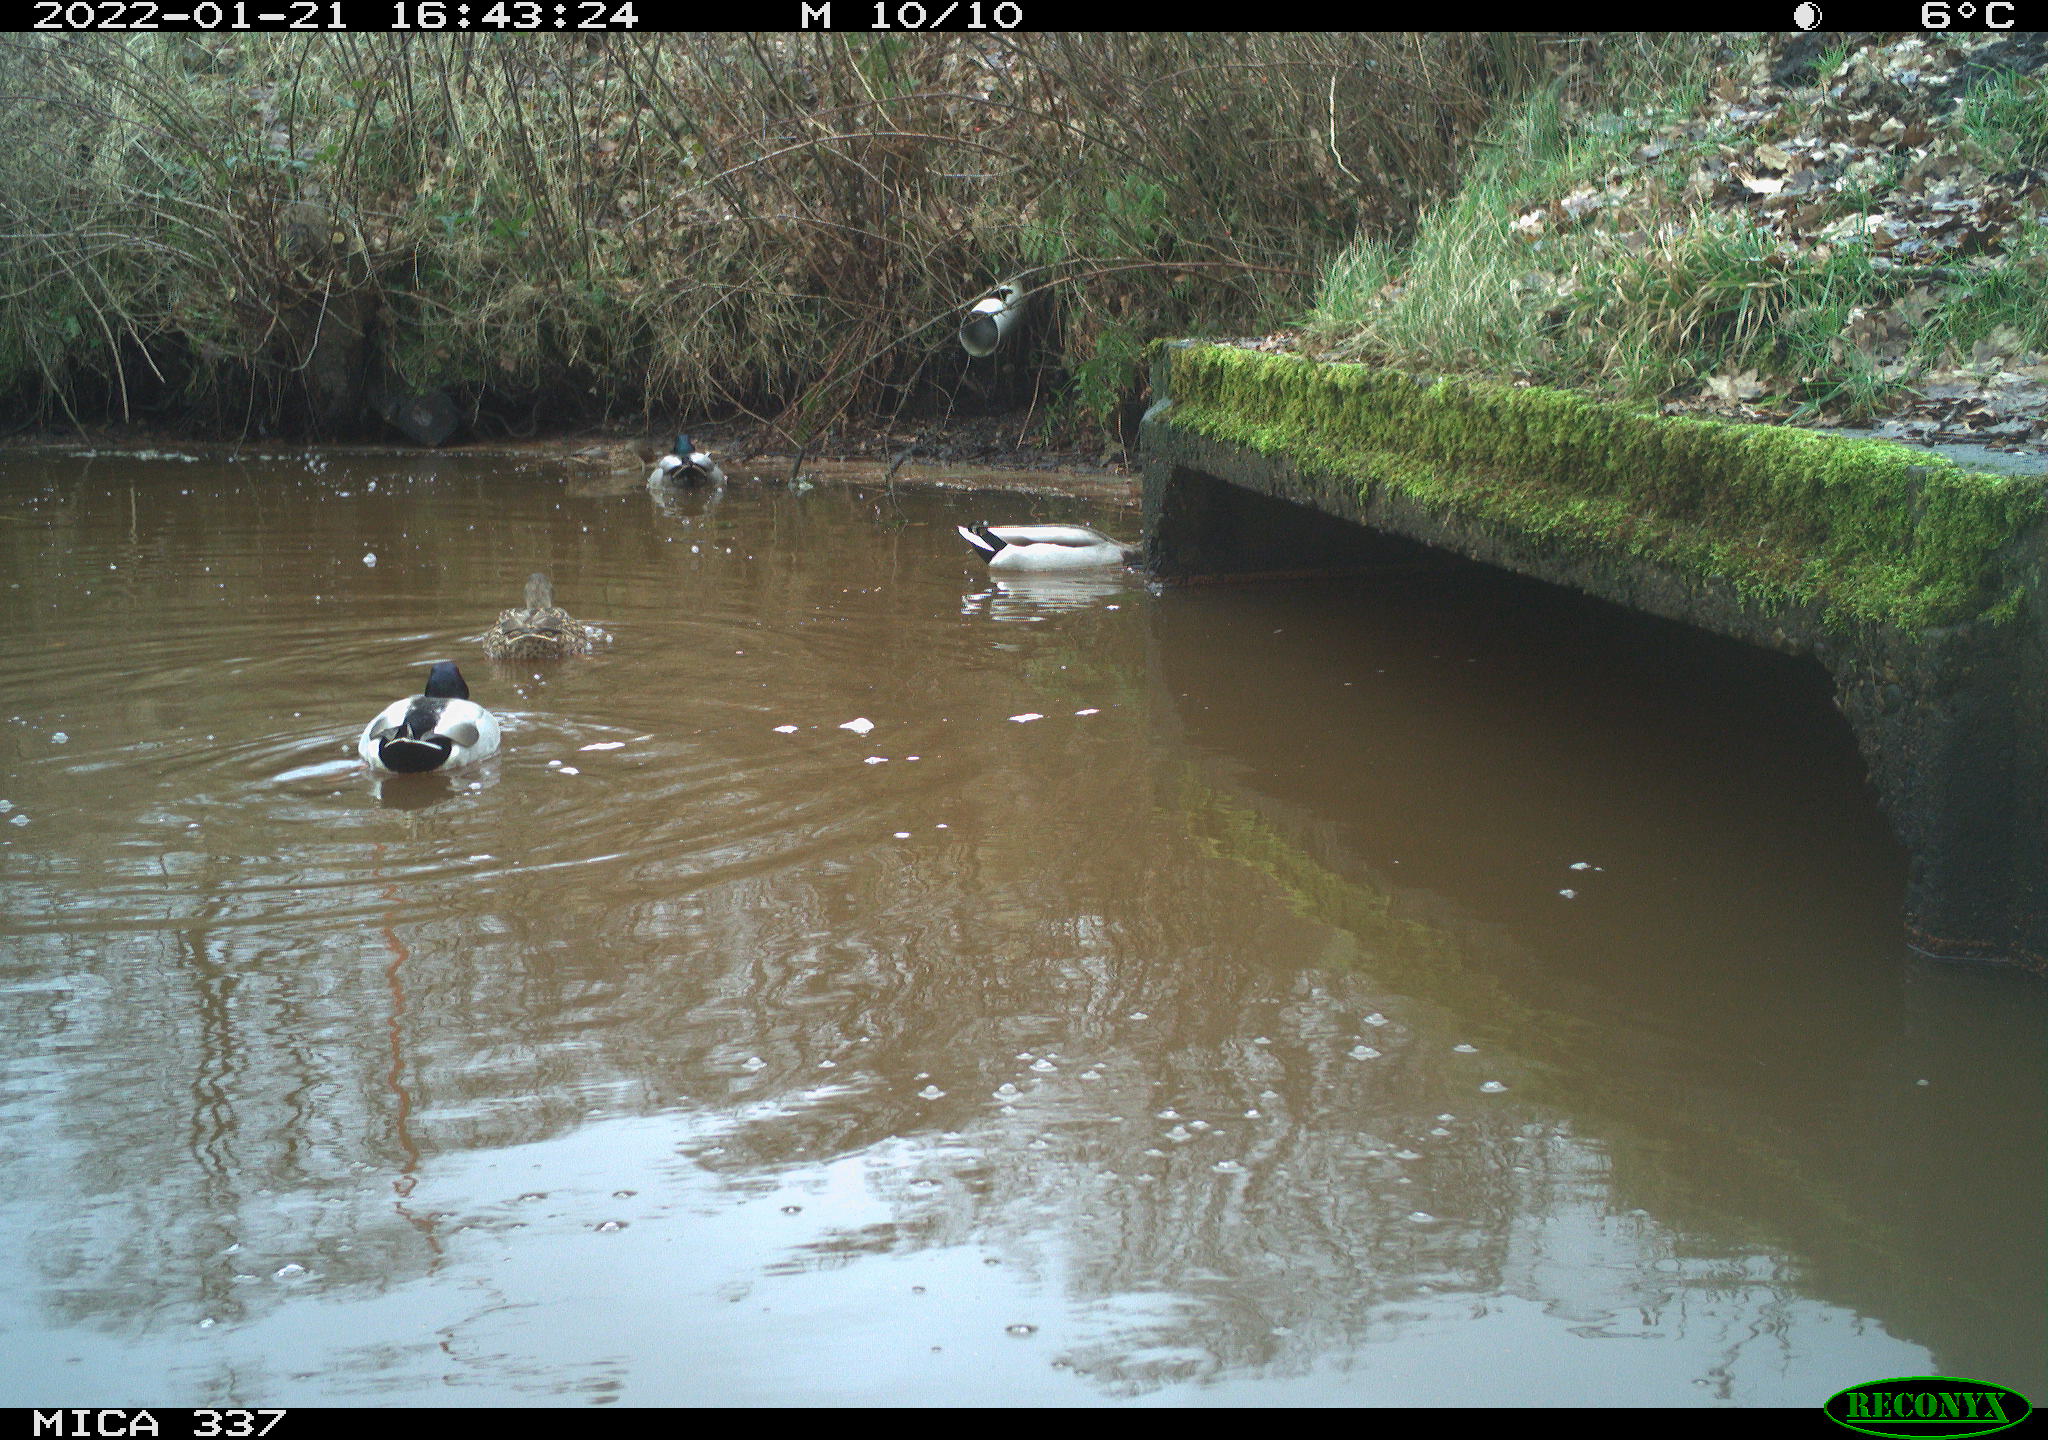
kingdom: Animalia
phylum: Chordata
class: Aves
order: Anseriformes
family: Anatidae
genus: Anas
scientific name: Anas platyrhynchos
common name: Mallard
